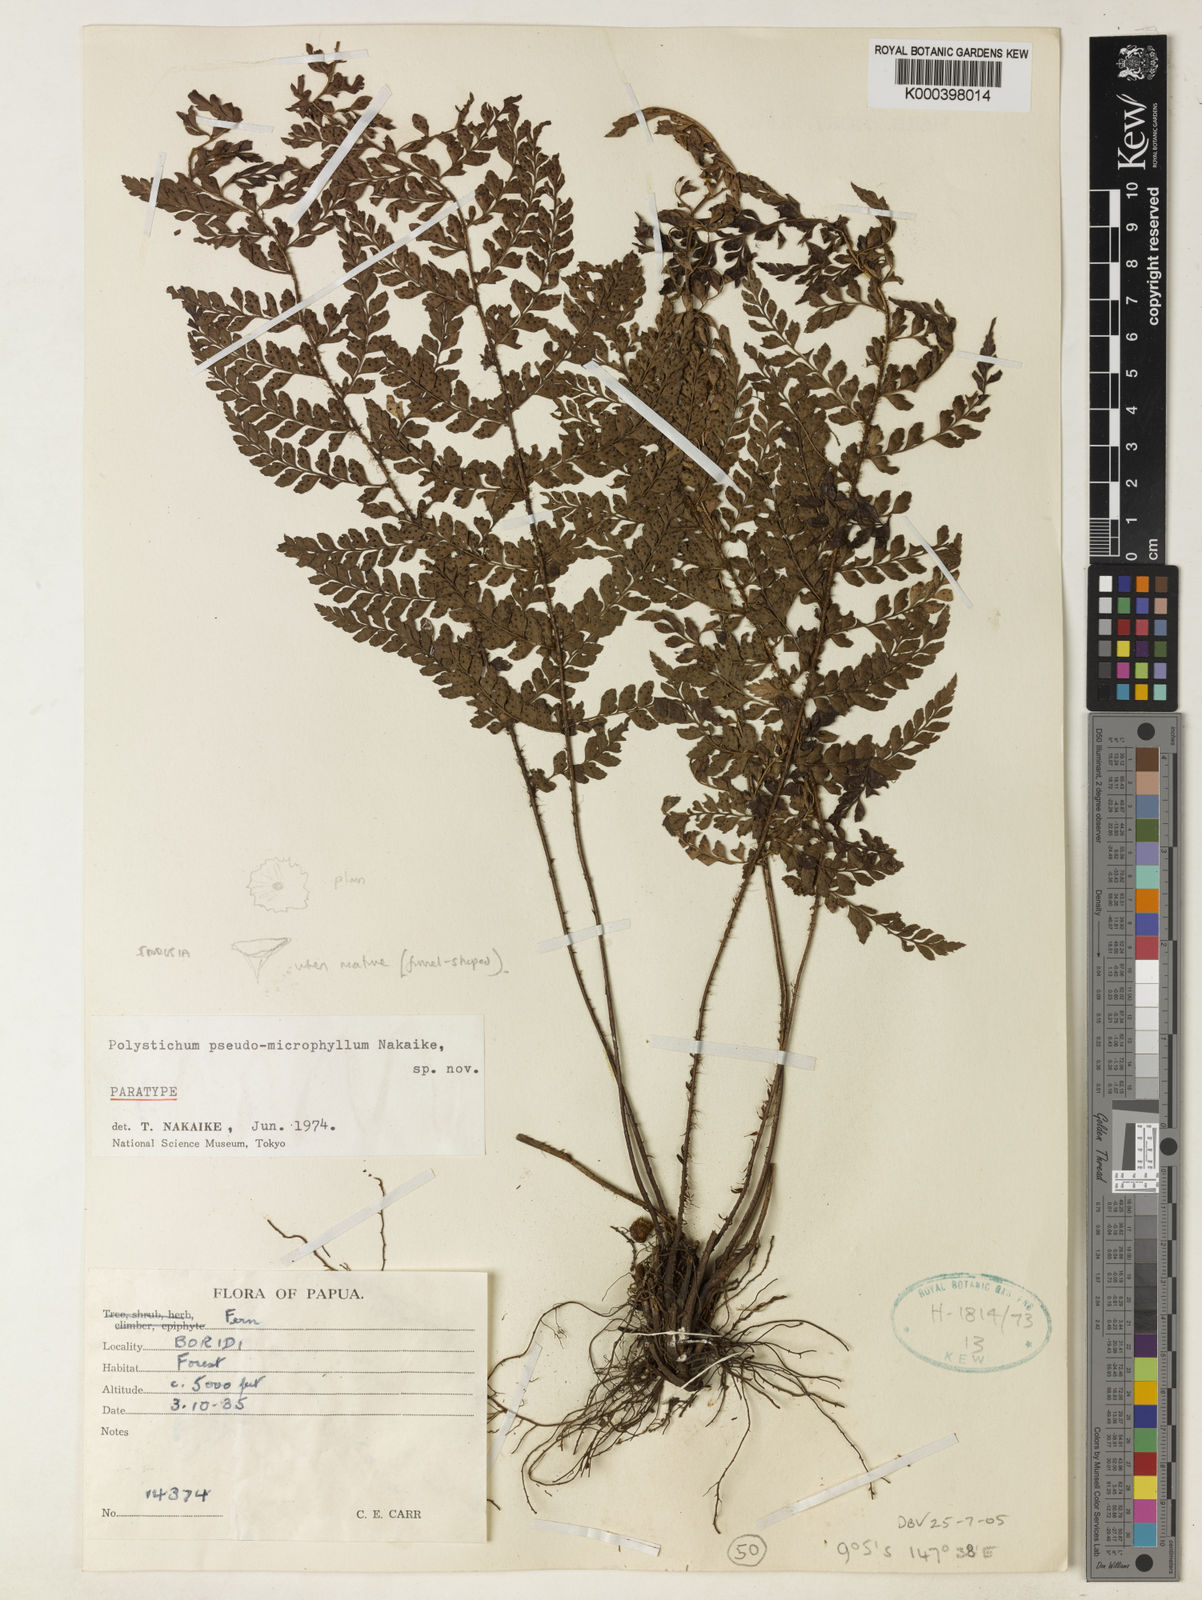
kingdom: Plantae
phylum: Tracheophyta
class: Polypodiopsida
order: Polypodiales
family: Dryopteridaceae
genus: Polystichum
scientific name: Polystichum pseudomicrophyllum
